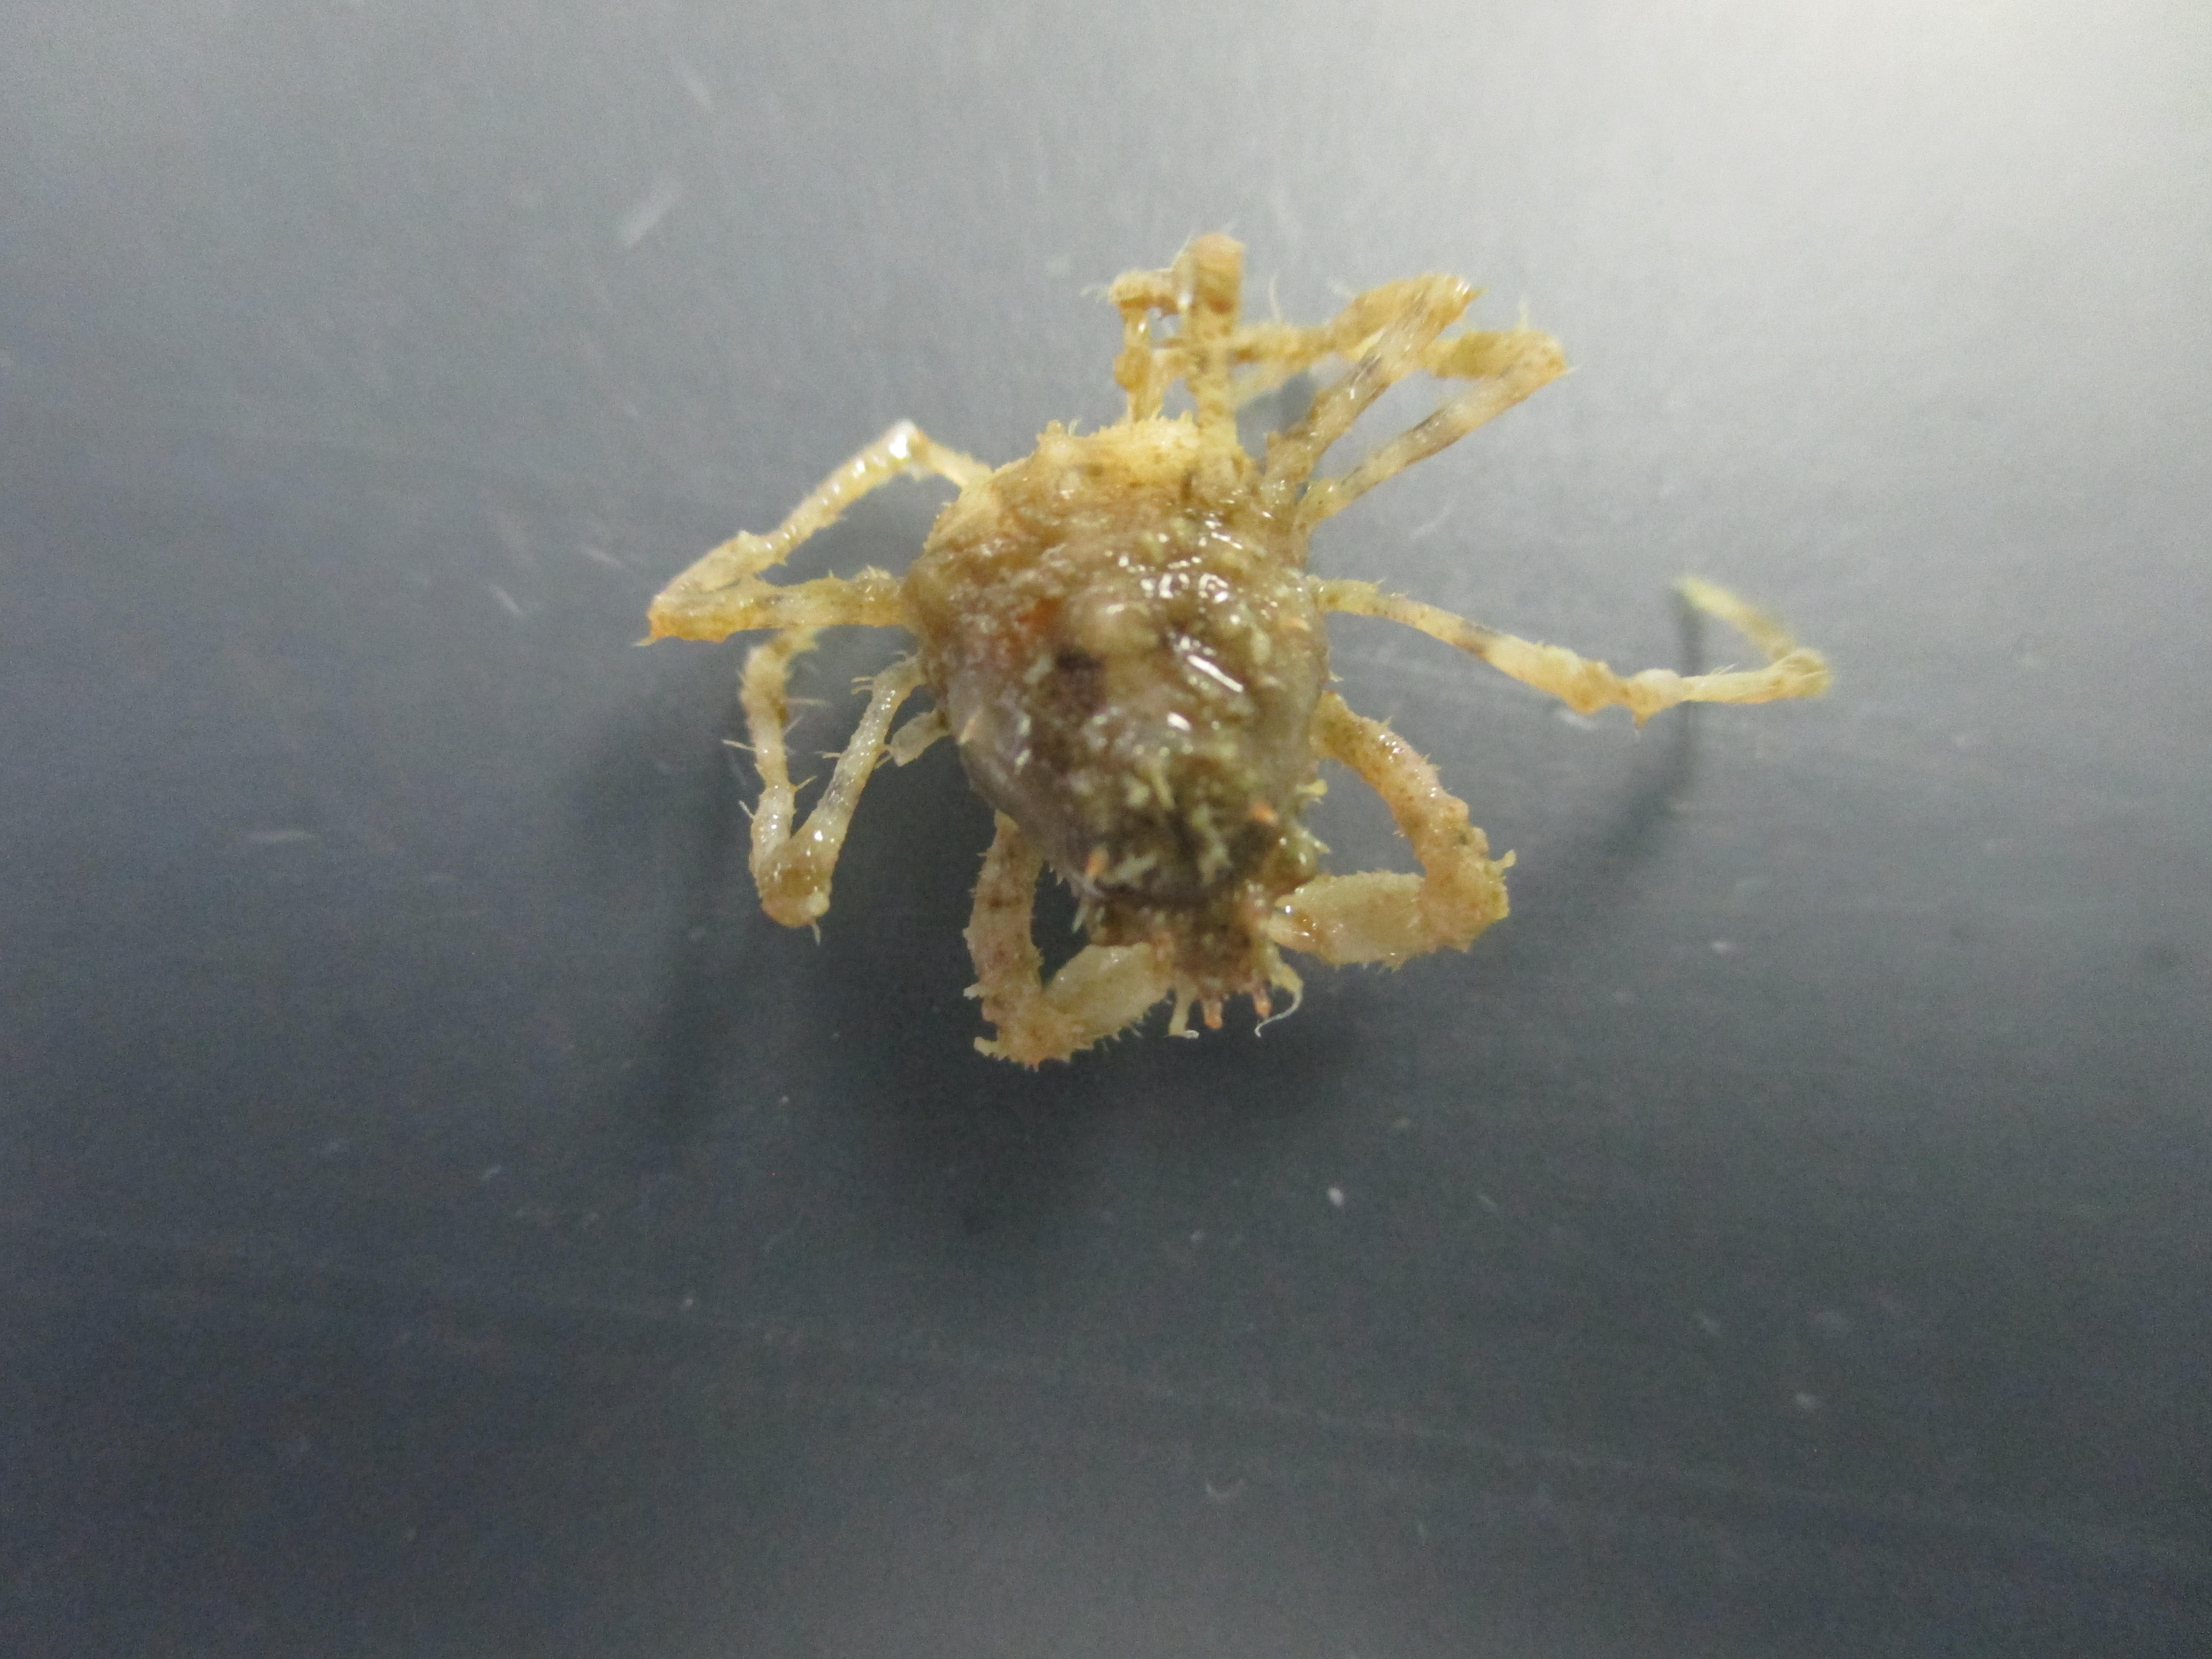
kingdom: Animalia
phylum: Arthropoda
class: Malacostraca
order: Decapoda
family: Inachidae
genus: Achaeopsis
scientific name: Achaeopsis spinulosa
